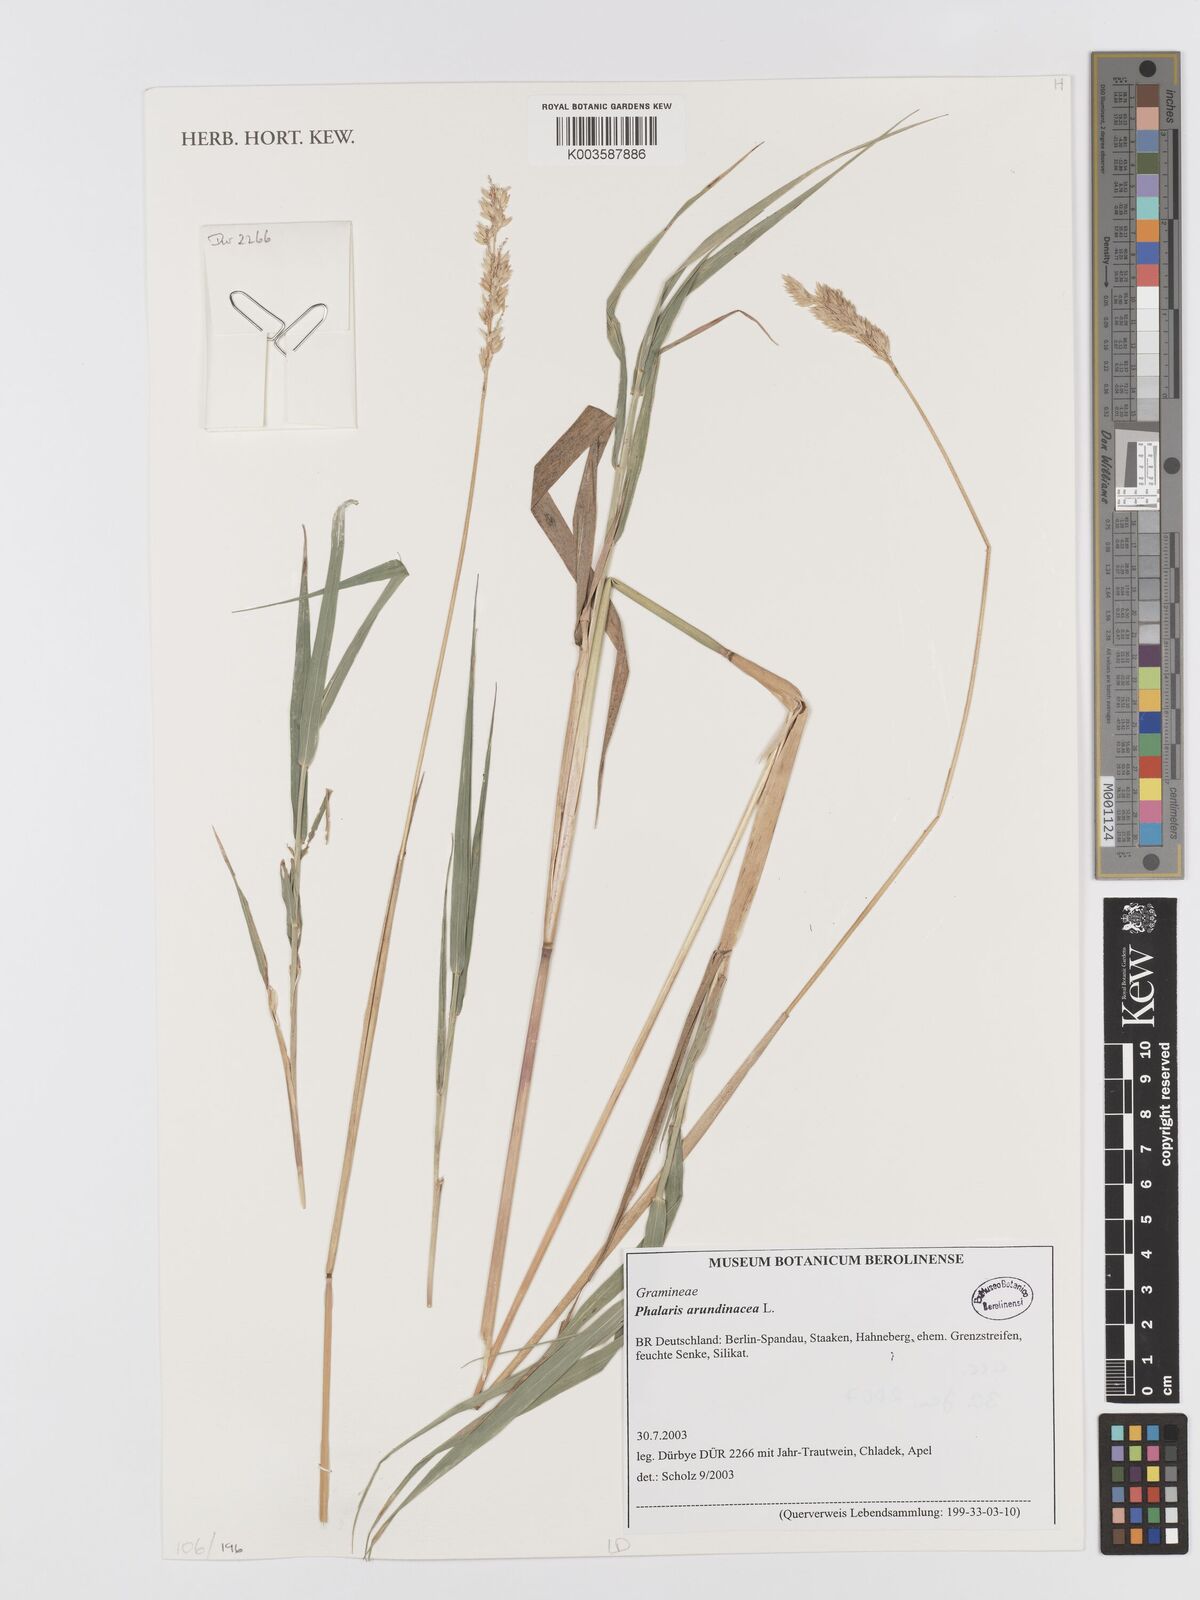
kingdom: Plantae
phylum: Tracheophyta
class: Liliopsida
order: Poales
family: Poaceae
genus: Phalaris
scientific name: Phalaris arundinacea
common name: Reed canary-grass
